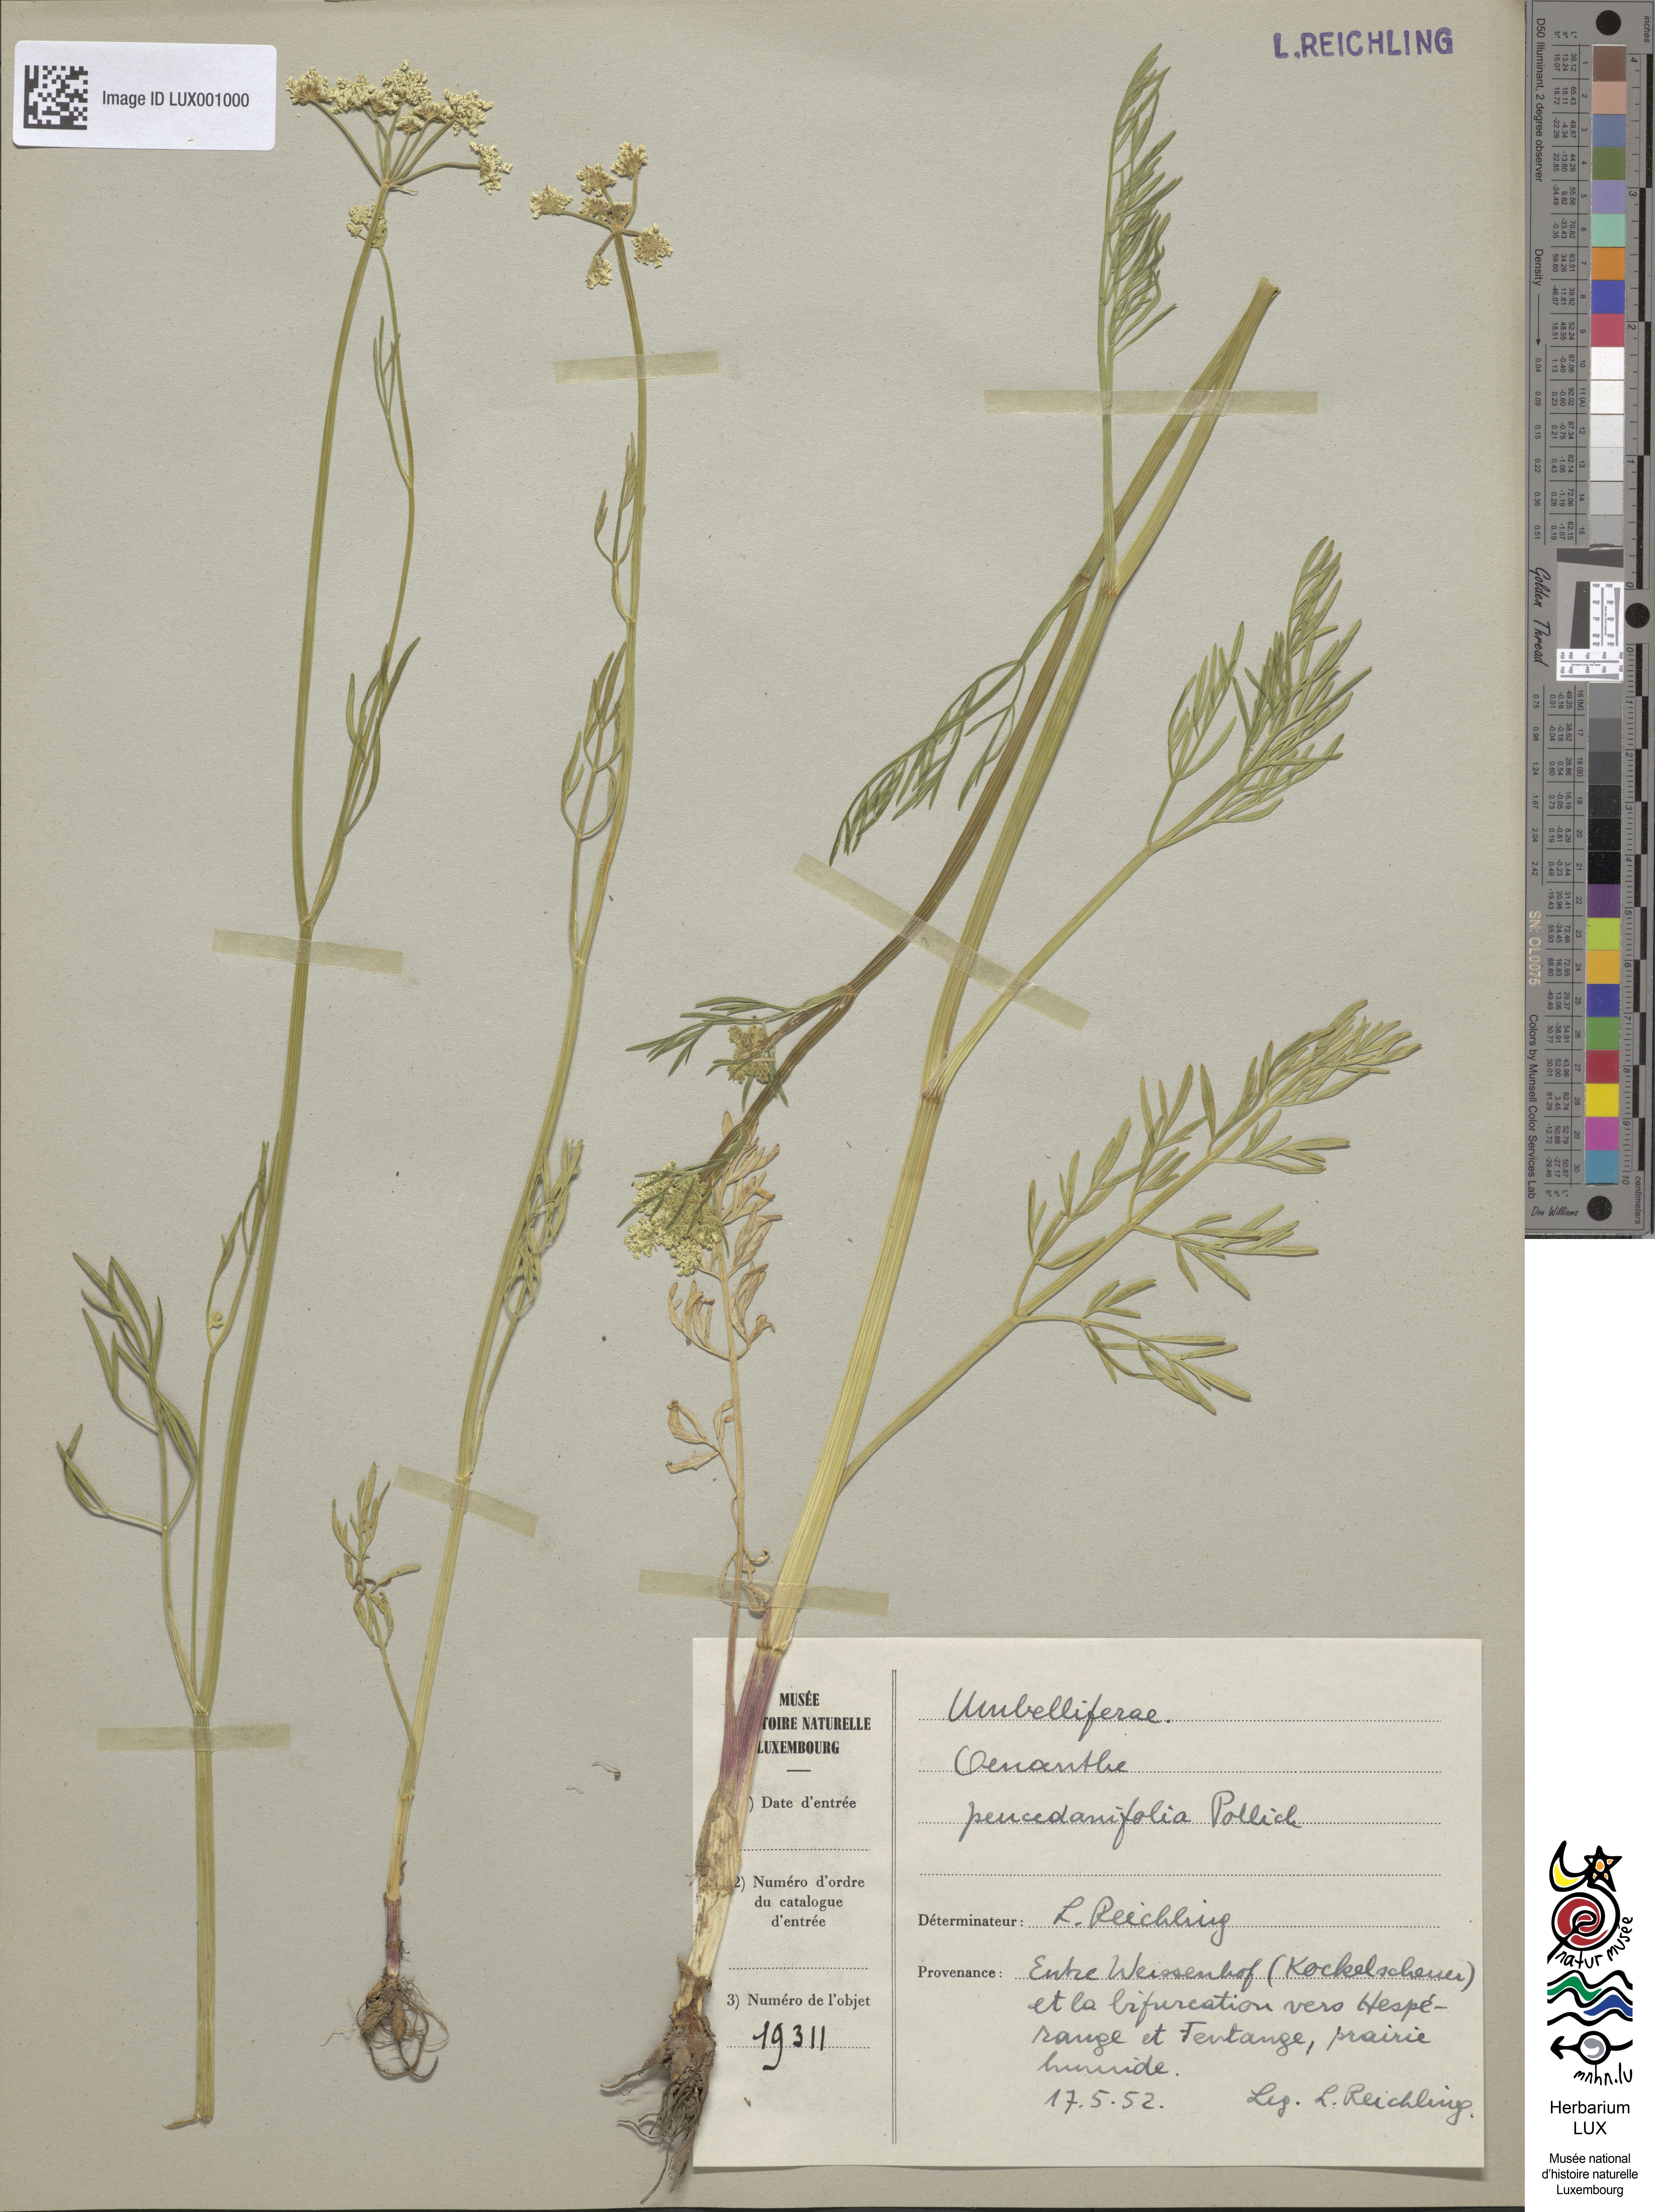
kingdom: Plantae
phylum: Tracheophyta
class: Magnoliopsida
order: Apiales
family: Apiaceae
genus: Oenanthe
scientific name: Oenanthe peucedanifolia
